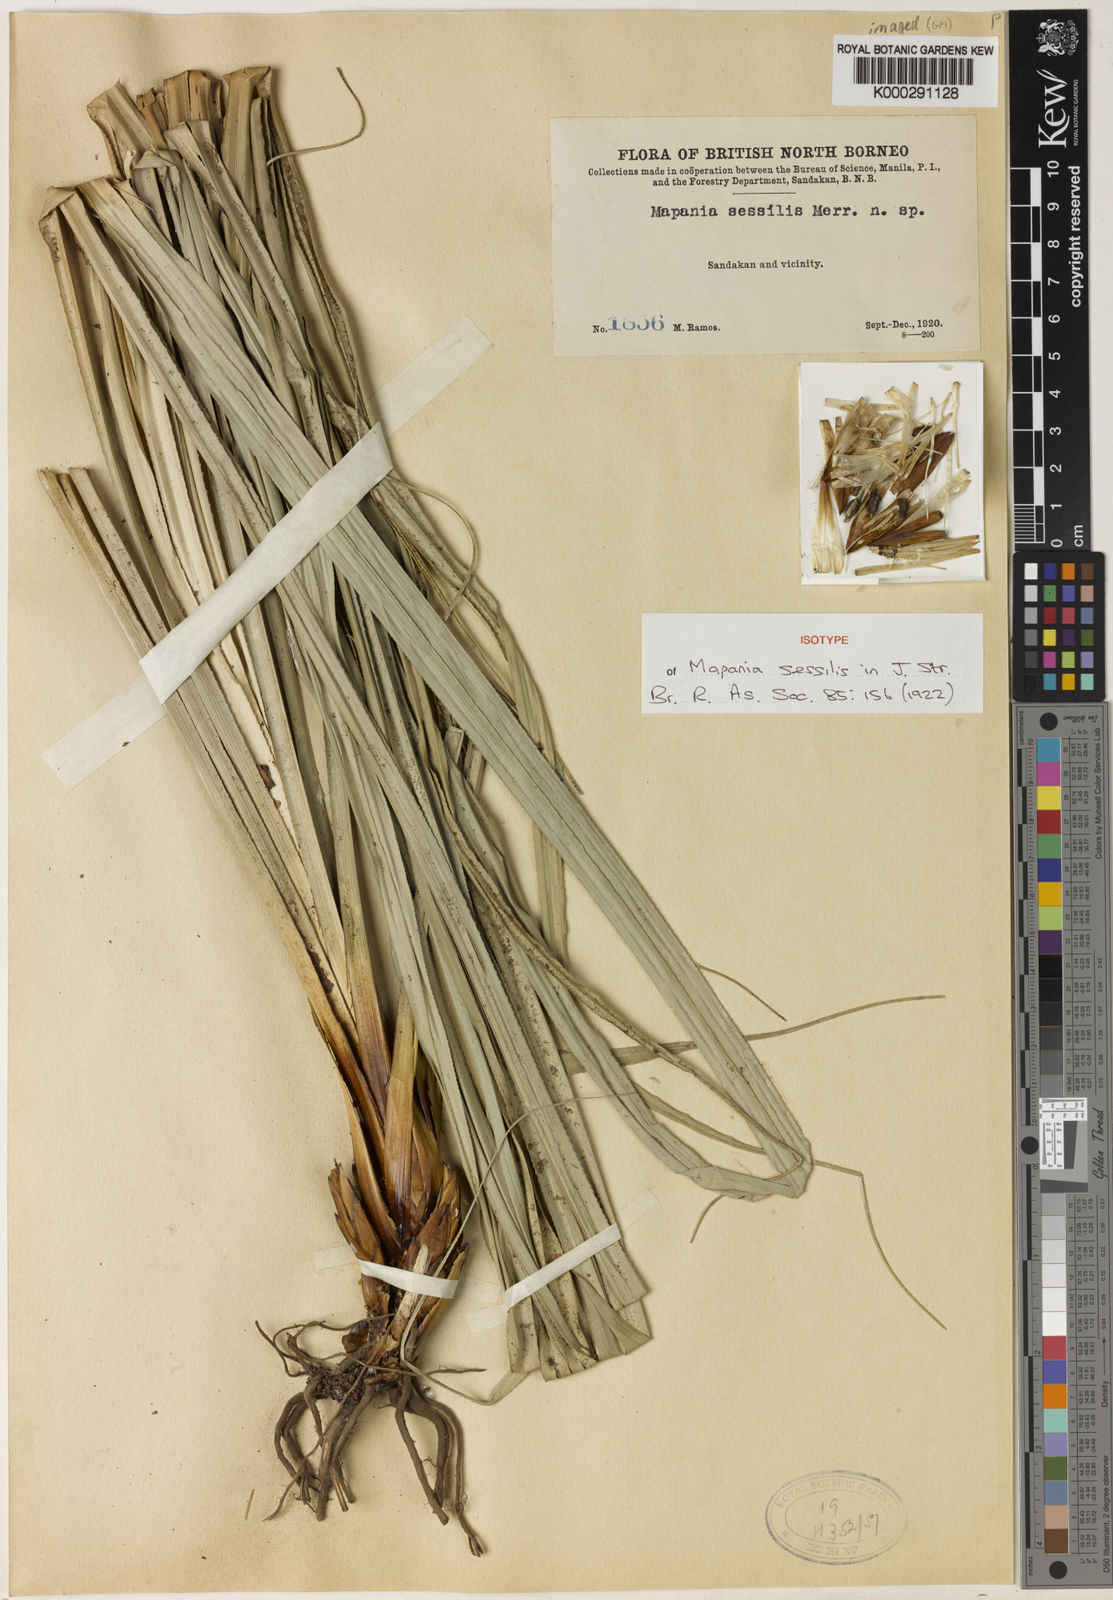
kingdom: Plantae
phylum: Tracheophyta
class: Liliopsida
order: Poales
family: Cyperaceae
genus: Mapania
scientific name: Mapania sessilis
